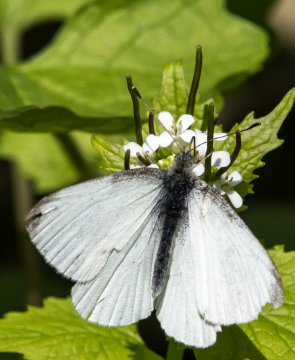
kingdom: Animalia
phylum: Arthropoda
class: Insecta
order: Lepidoptera
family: Pieridae
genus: Pieris
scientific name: Pieris virginiensis
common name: West Virginia White
